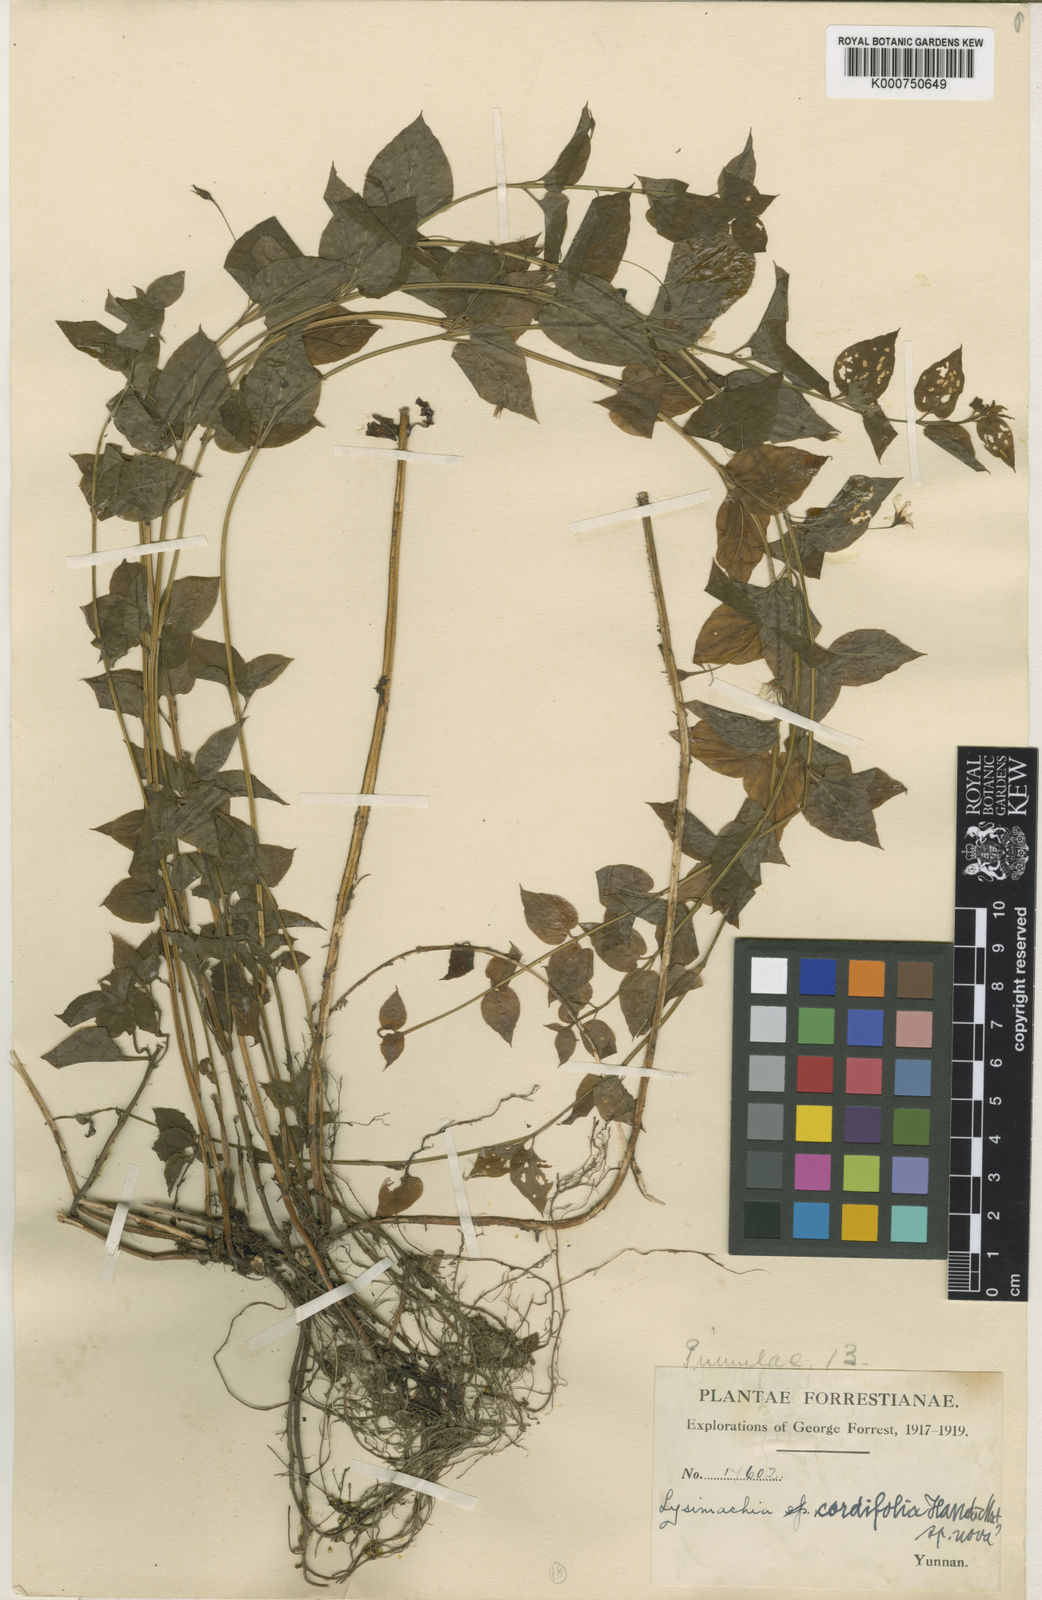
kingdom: Plantae
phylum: Tracheophyta
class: Magnoliopsida
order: Ericales
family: Primulaceae
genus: Lysimachia
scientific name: Lysimachia cordifolia
